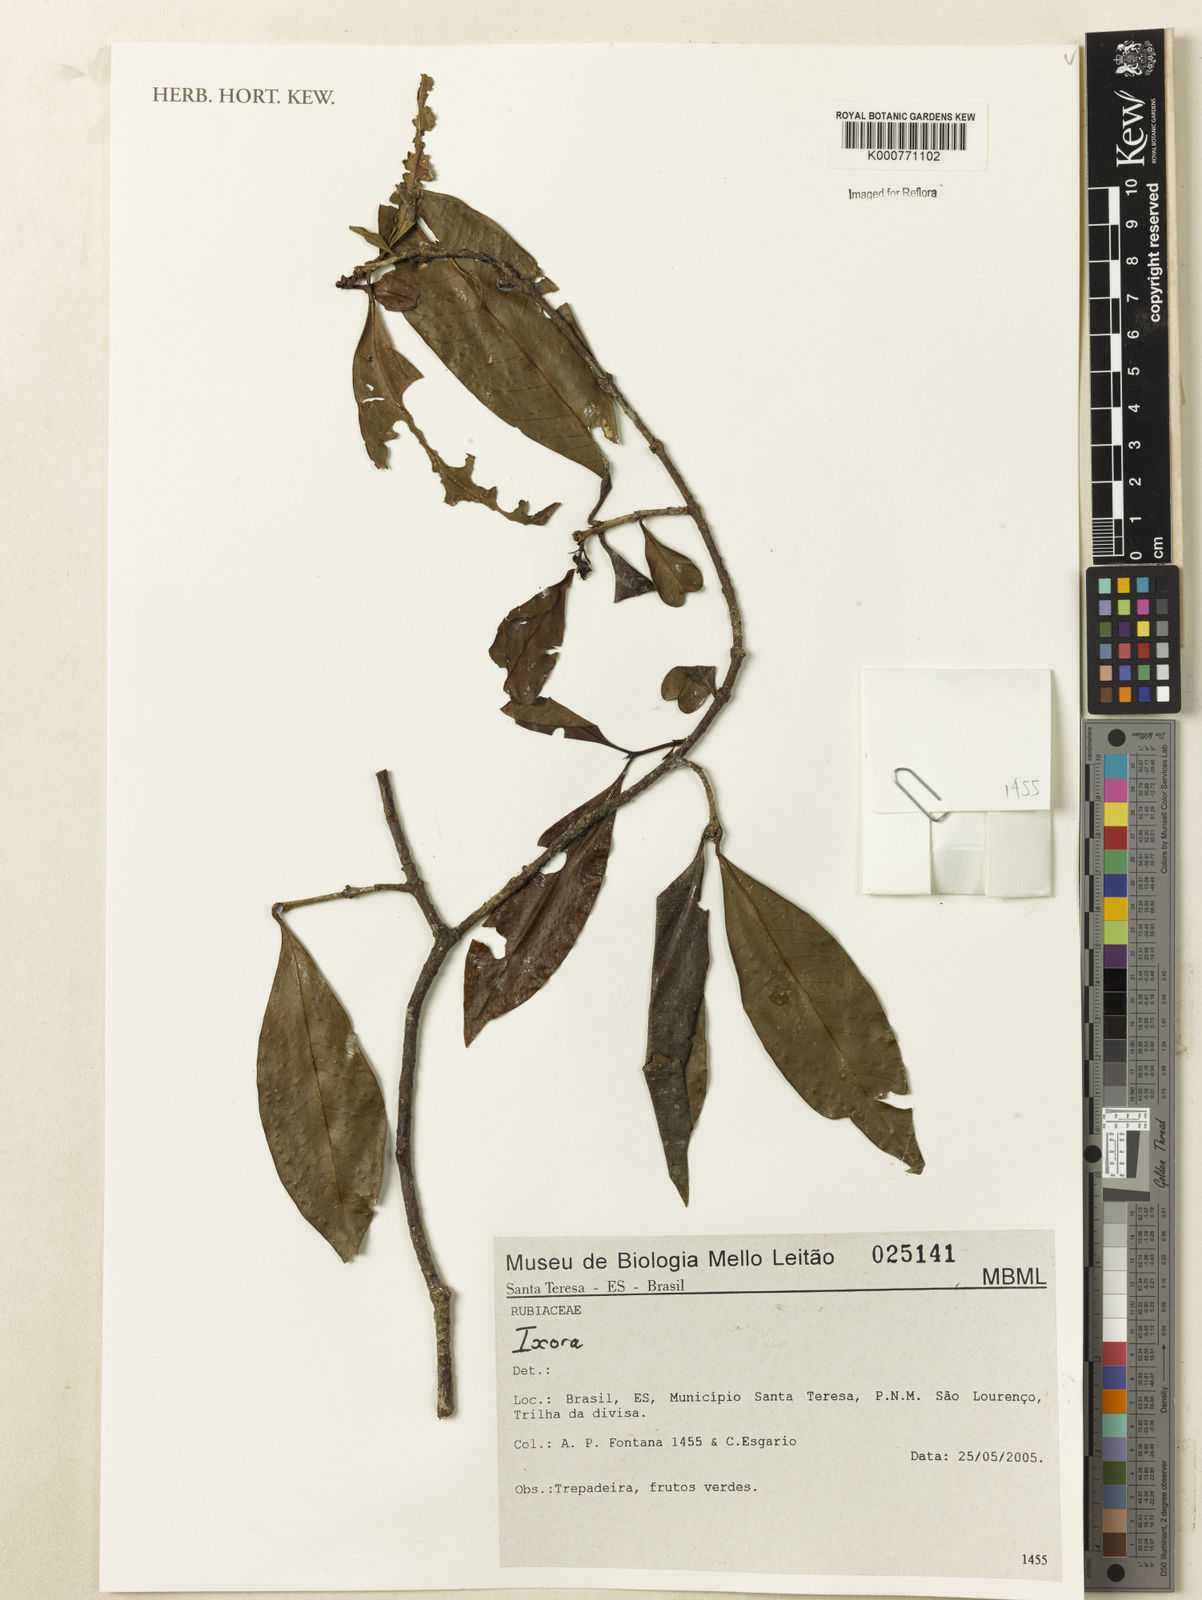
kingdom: Plantae
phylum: Tracheophyta
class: Magnoliopsida
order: Gentianales
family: Rubiaceae
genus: Ixora
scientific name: Ixora
